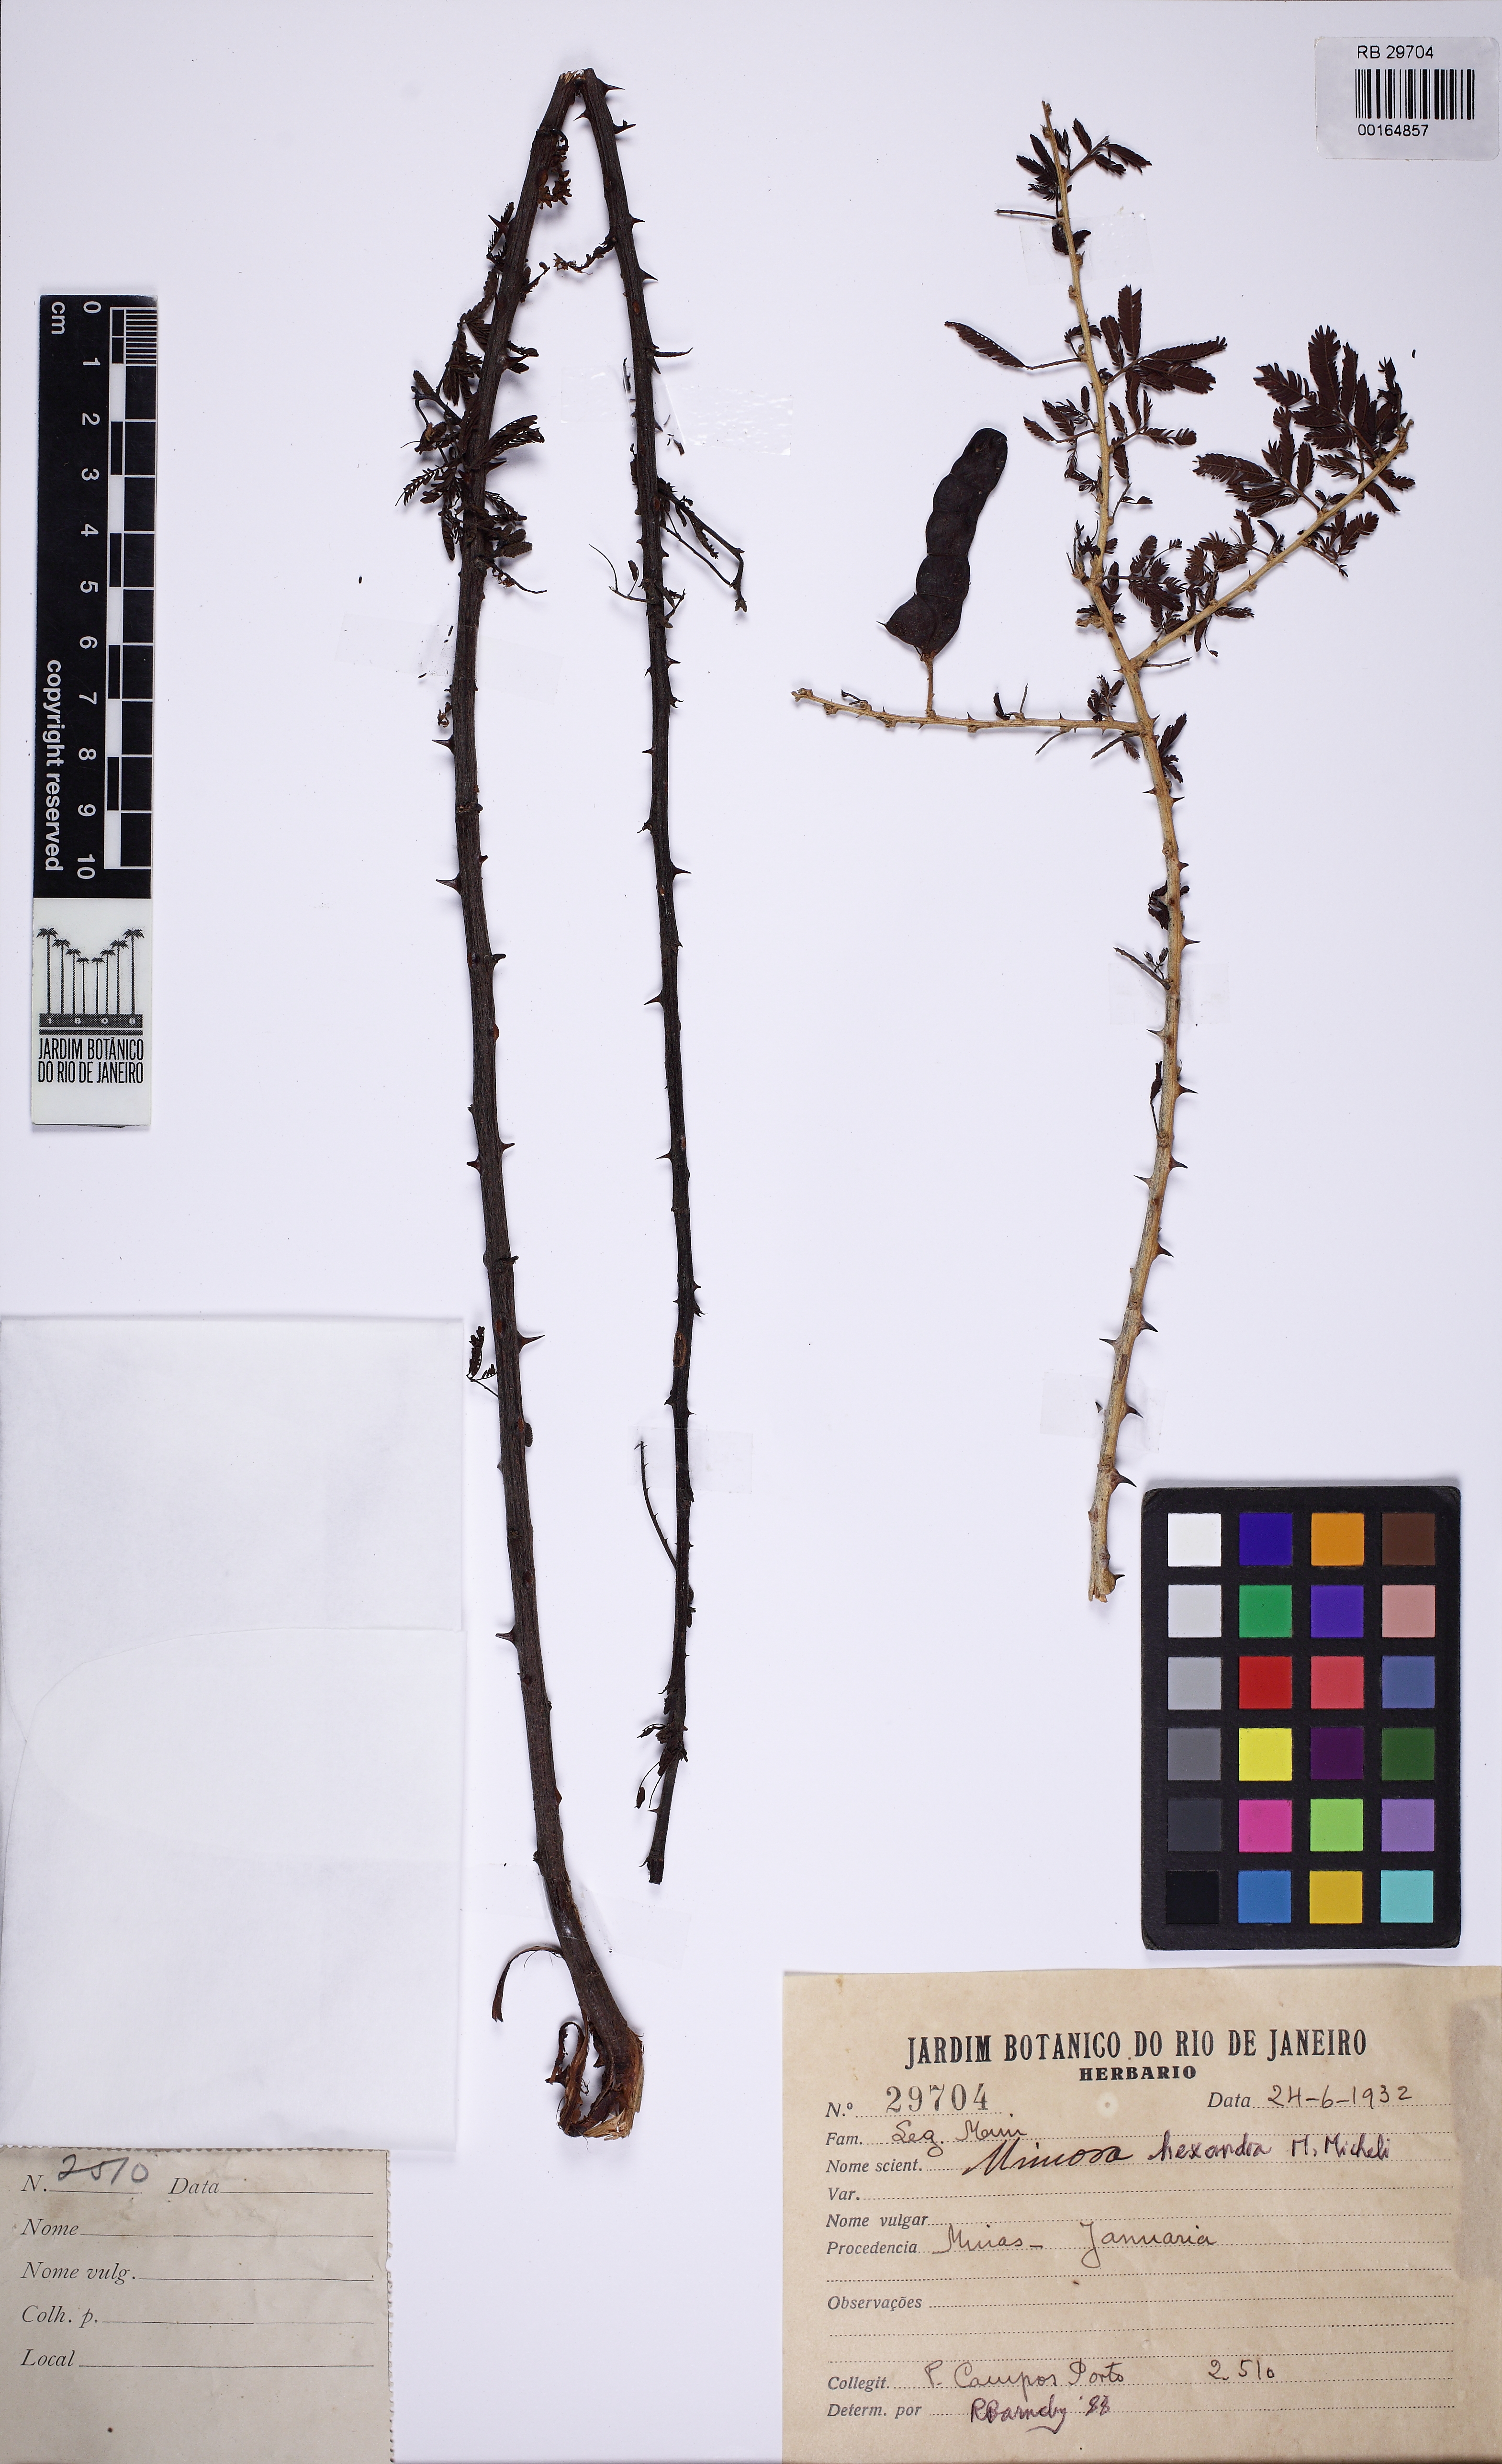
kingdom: Plantae
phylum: Tracheophyta
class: Magnoliopsida
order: Fabales
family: Fabaceae
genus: Mimosa
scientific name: Mimosa hexandra
